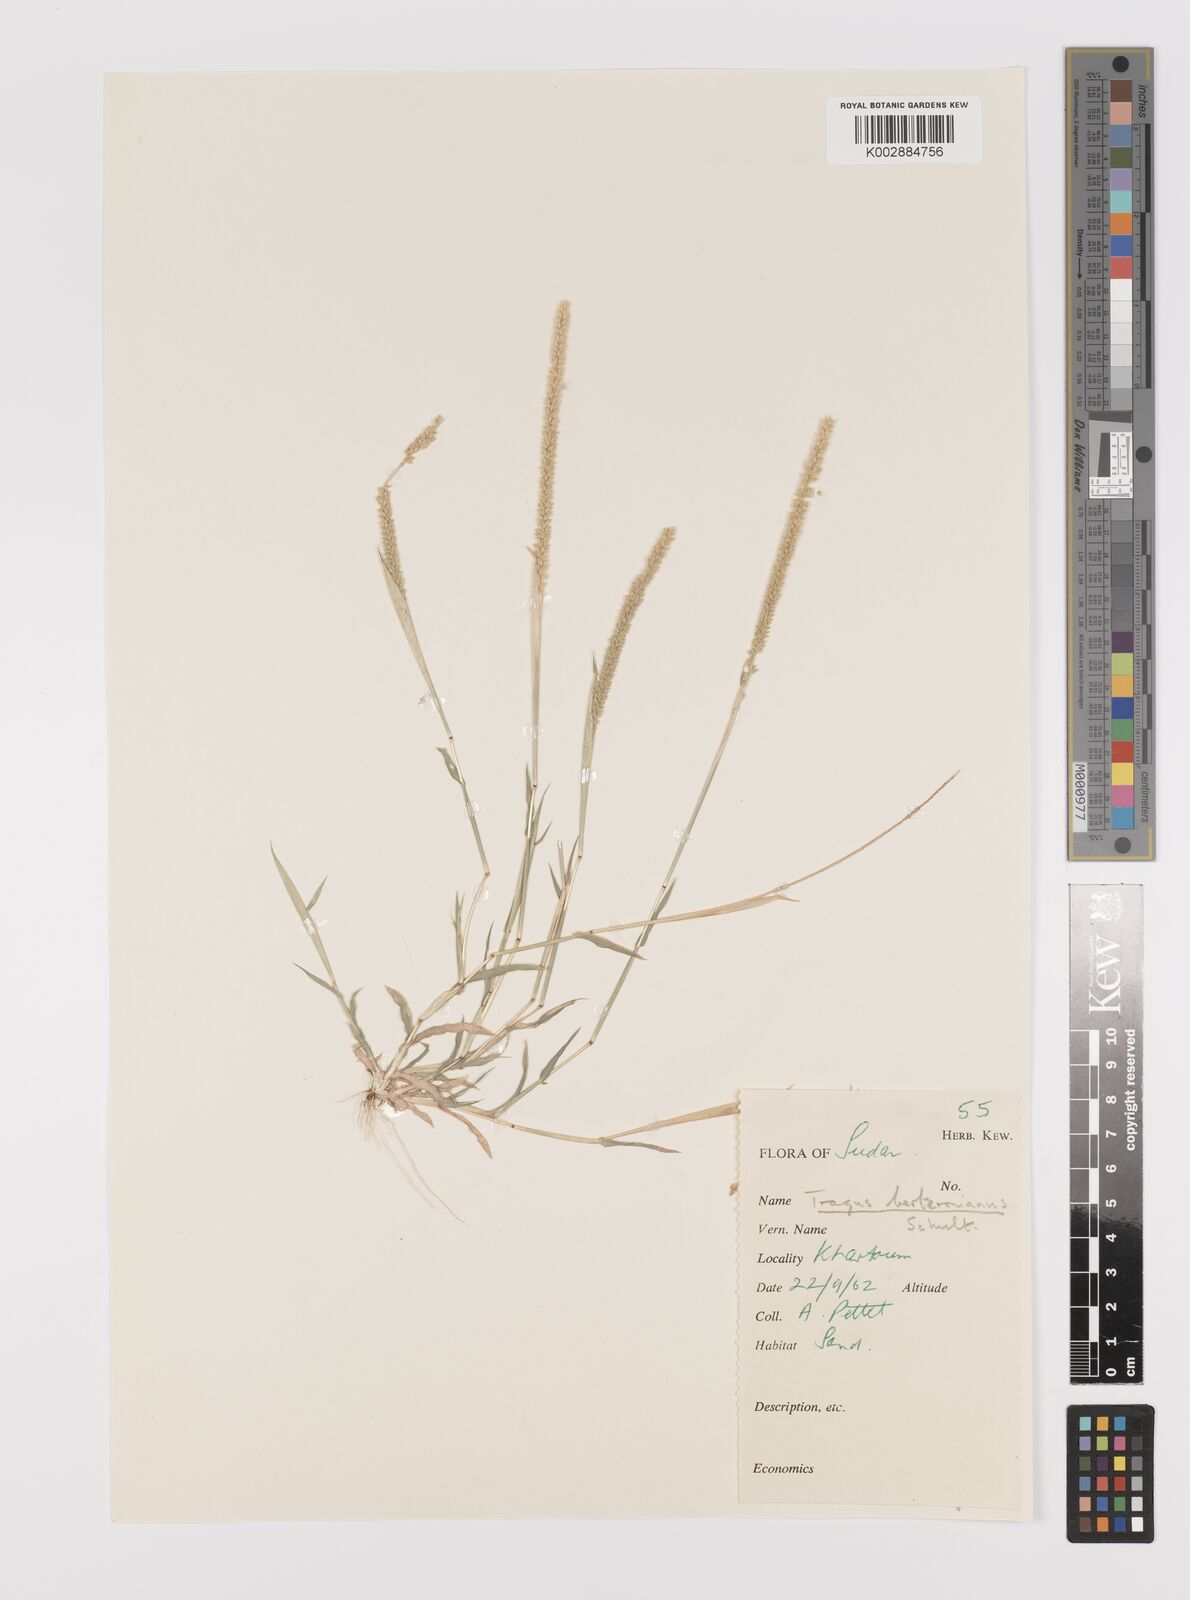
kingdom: Plantae
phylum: Tracheophyta
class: Liliopsida
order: Poales
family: Poaceae
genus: Tragus
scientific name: Tragus berteronianus
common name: African bur-grass
